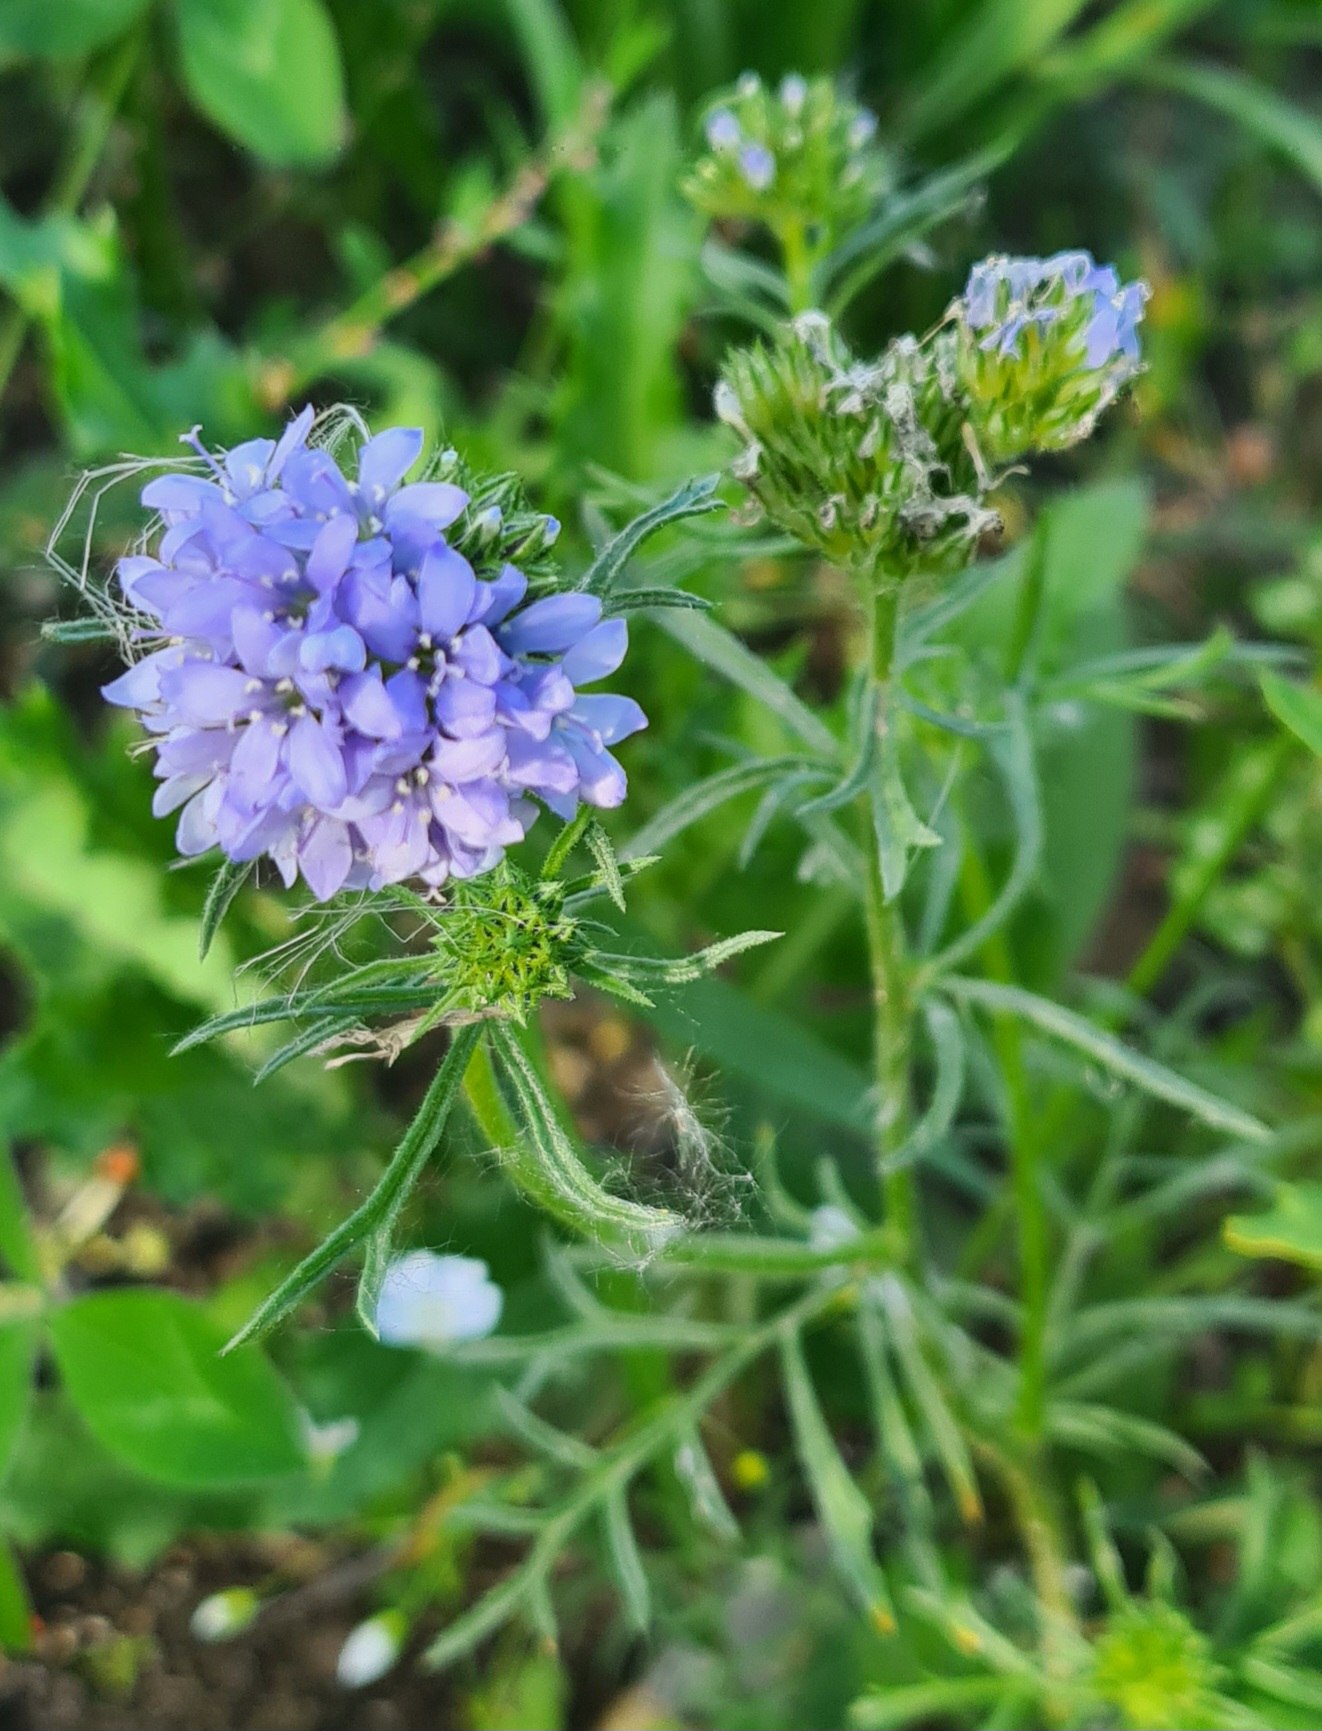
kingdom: Plantae
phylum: Tracheophyta
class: Magnoliopsida
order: Ericales
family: Polemoniaceae
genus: Gilia
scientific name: Gilia achilleifolia
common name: Fjer-blåhoved
